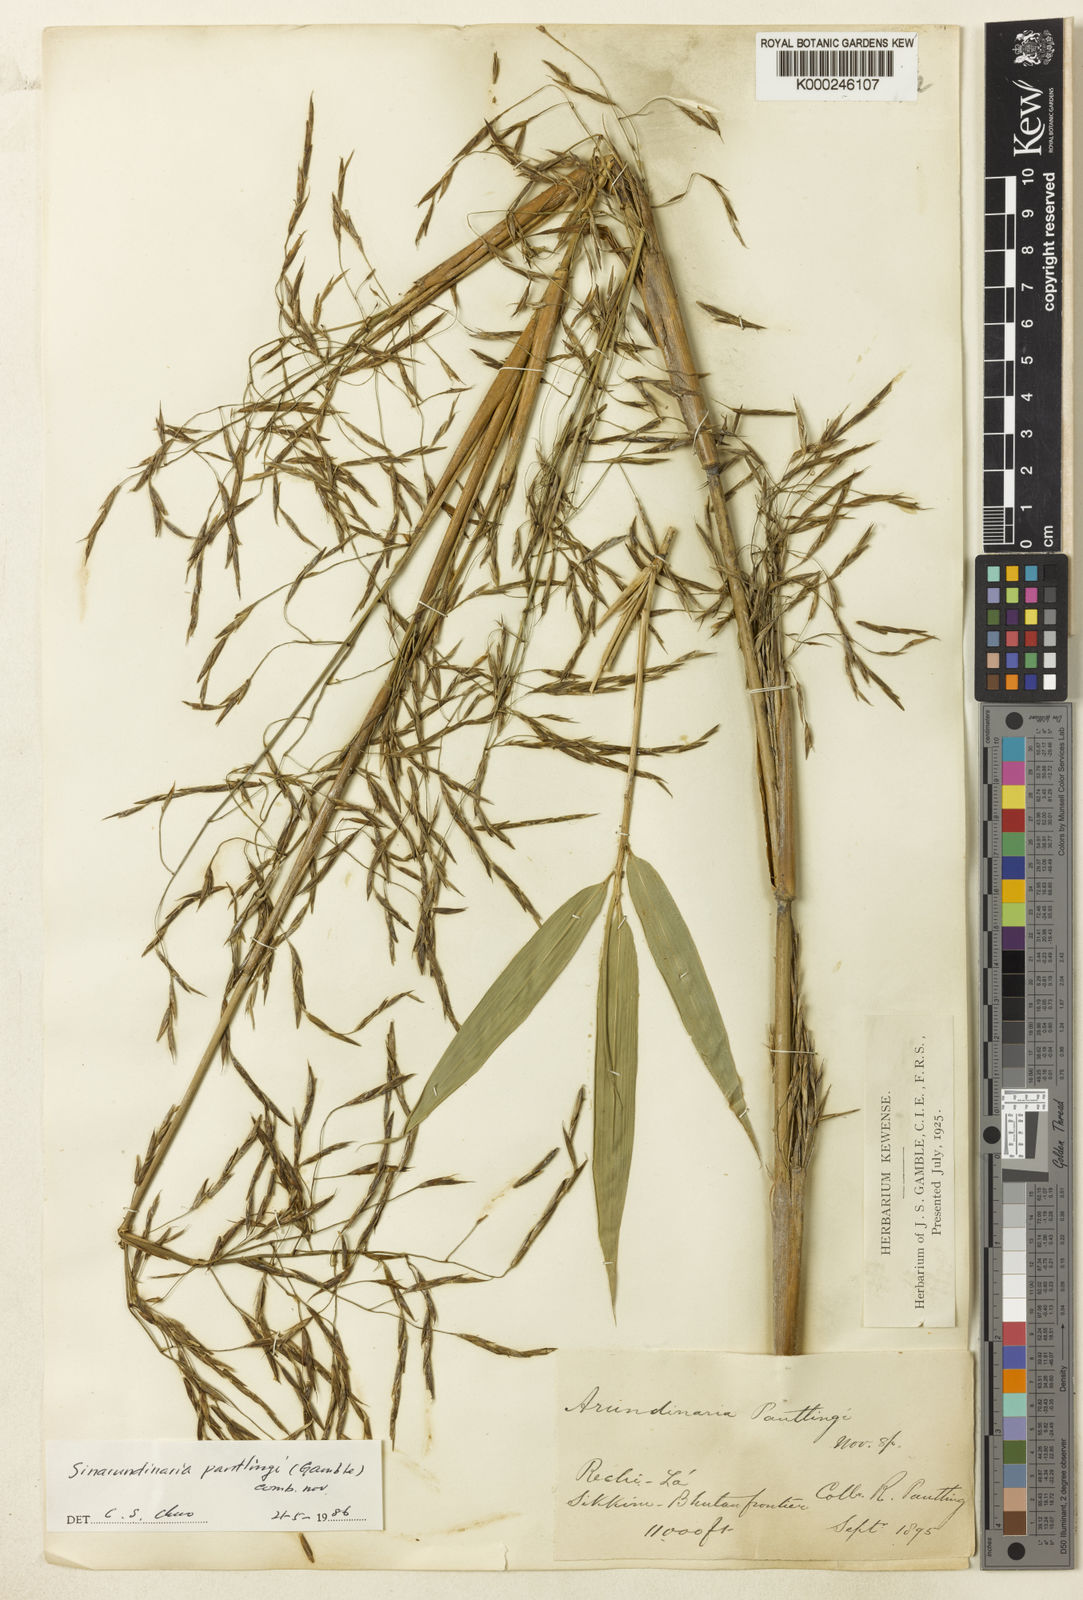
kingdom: Plantae
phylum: Tracheophyta
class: Liliopsida
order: Poales
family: Poaceae
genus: Yushania
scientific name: Yushania pantlingii
